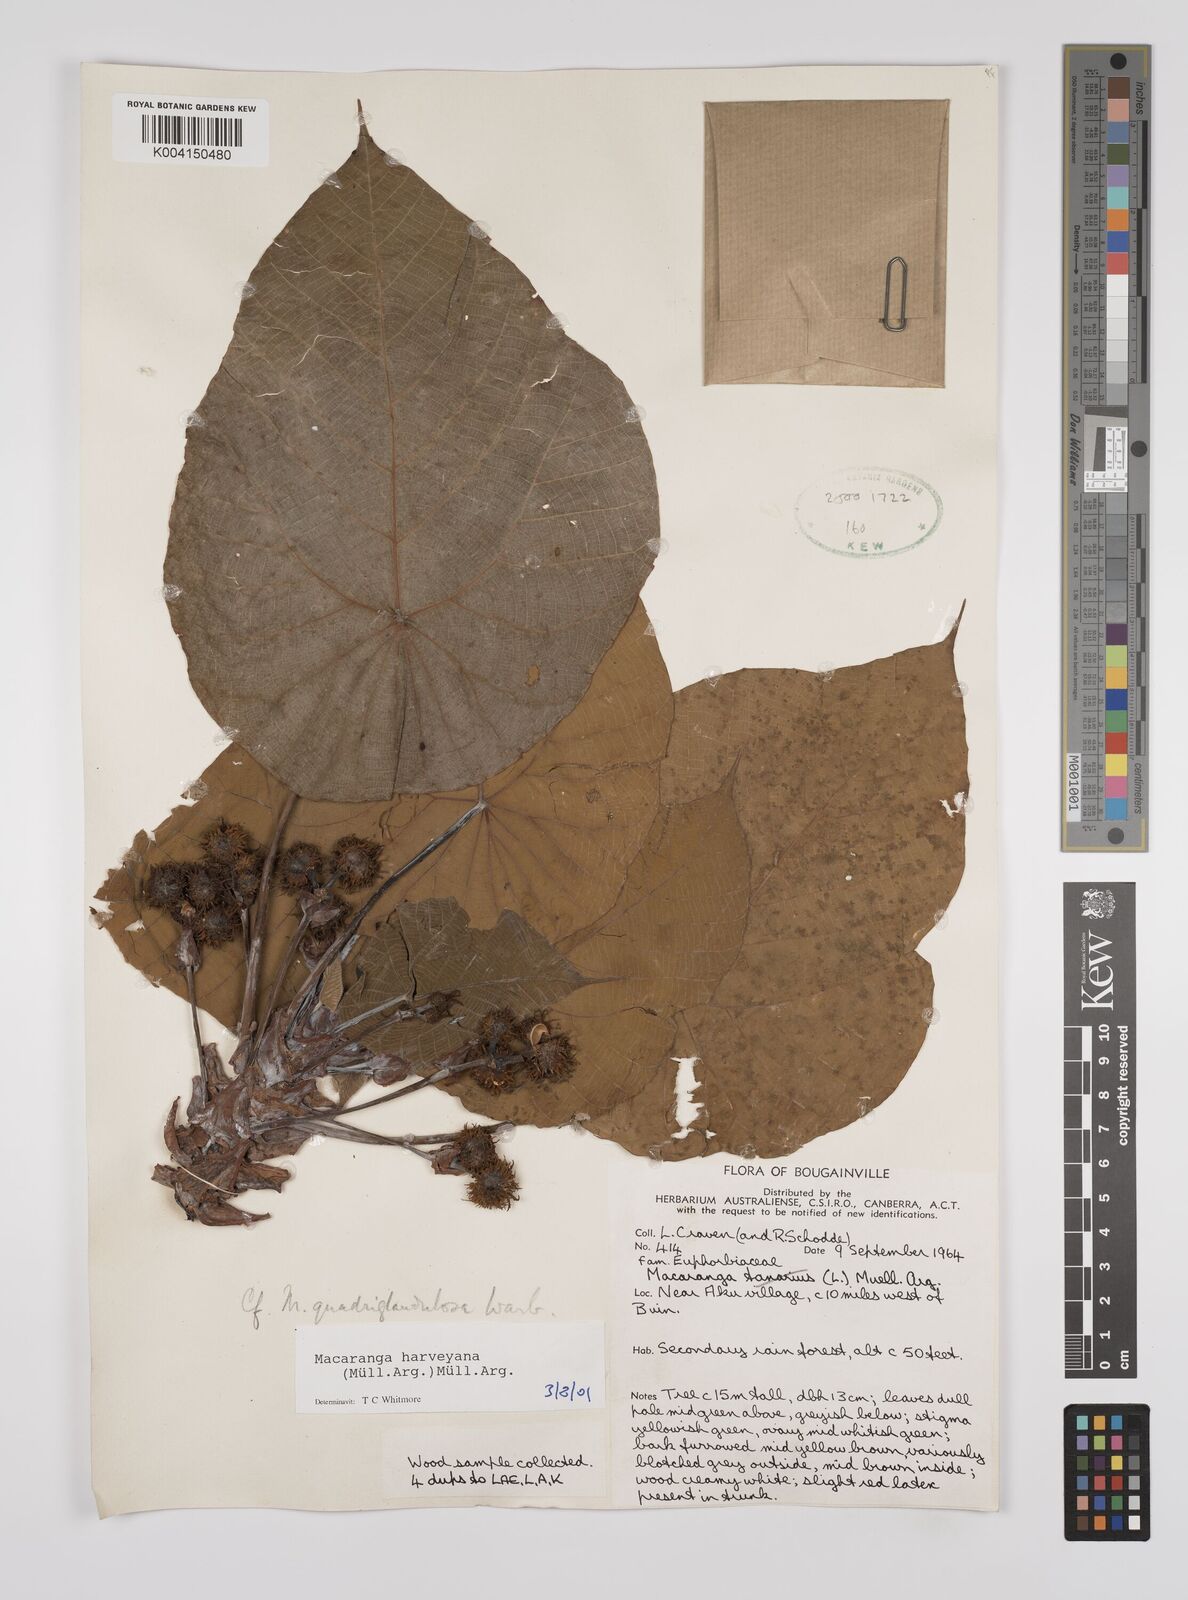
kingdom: Plantae
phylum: Tracheophyta
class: Magnoliopsida
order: Malpighiales
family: Euphorbiaceae
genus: Macaranga
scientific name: Macaranga harveyana
